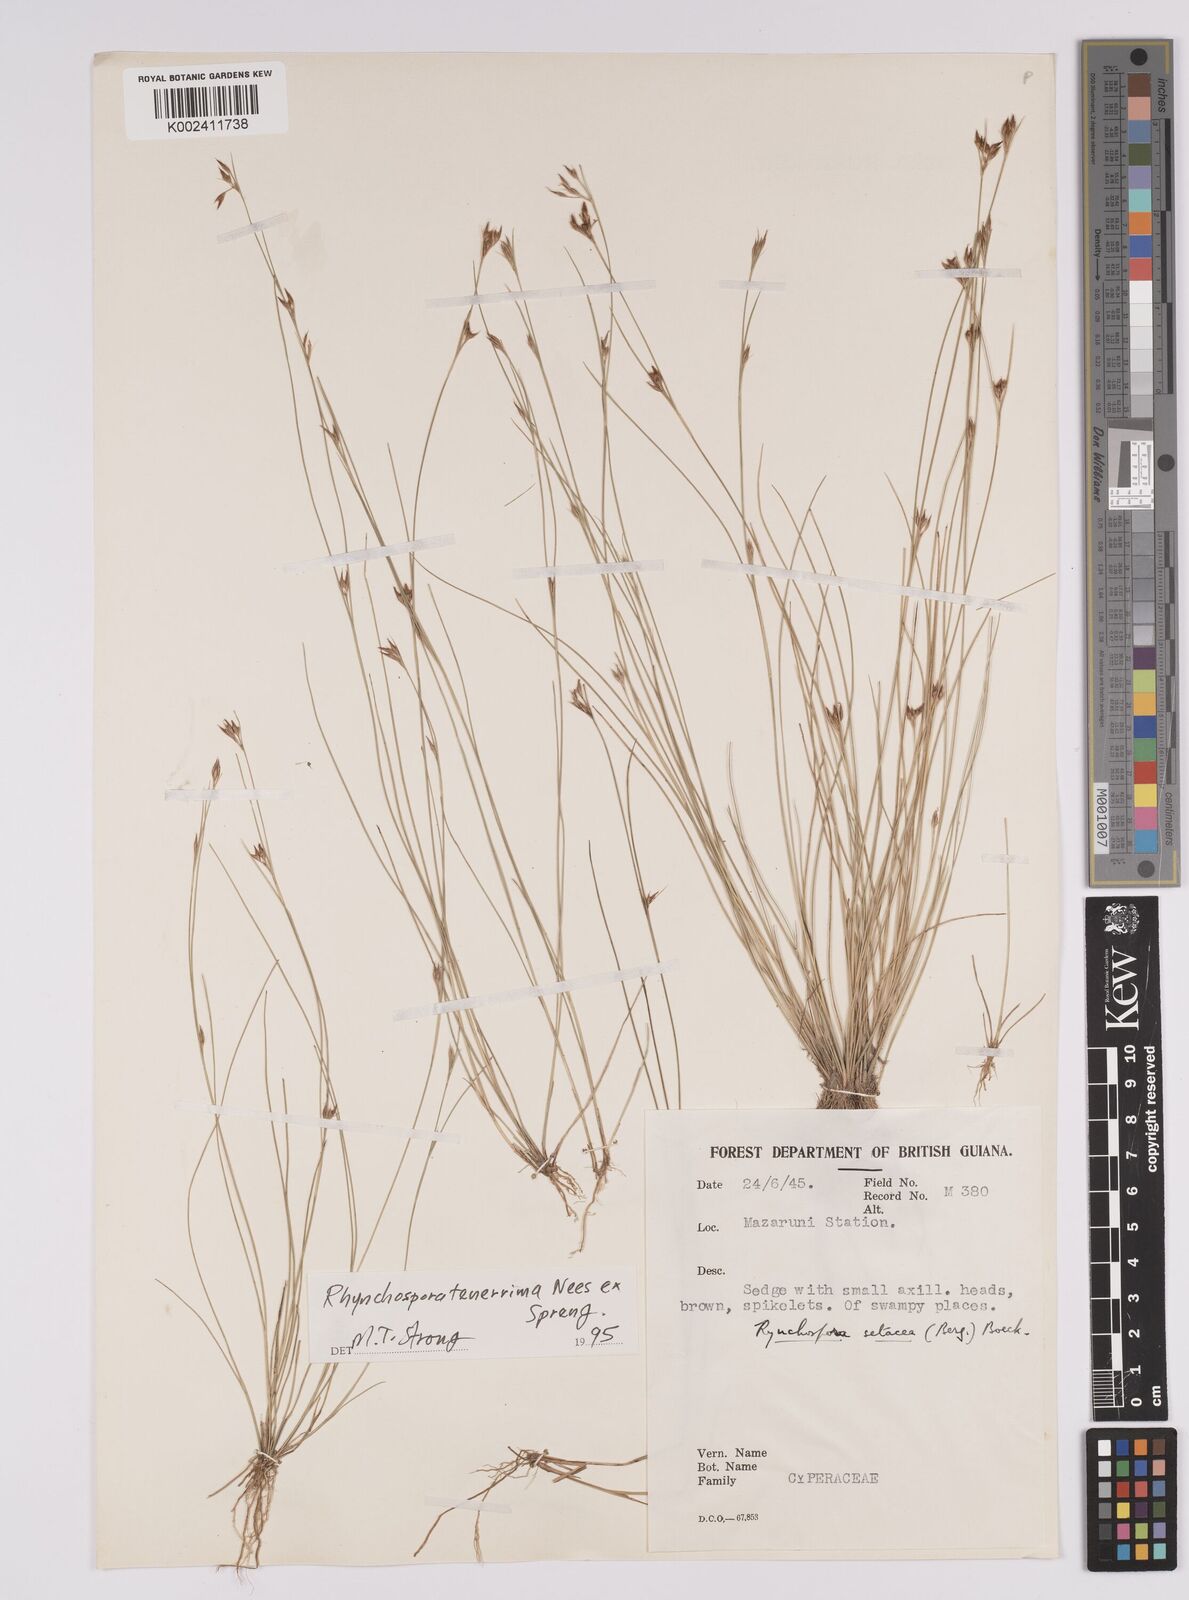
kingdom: Plantae
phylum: Tracheophyta
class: Liliopsida
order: Poales
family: Cyperaceae
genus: Rhynchospora
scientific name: Rhynchospora tenerrima
